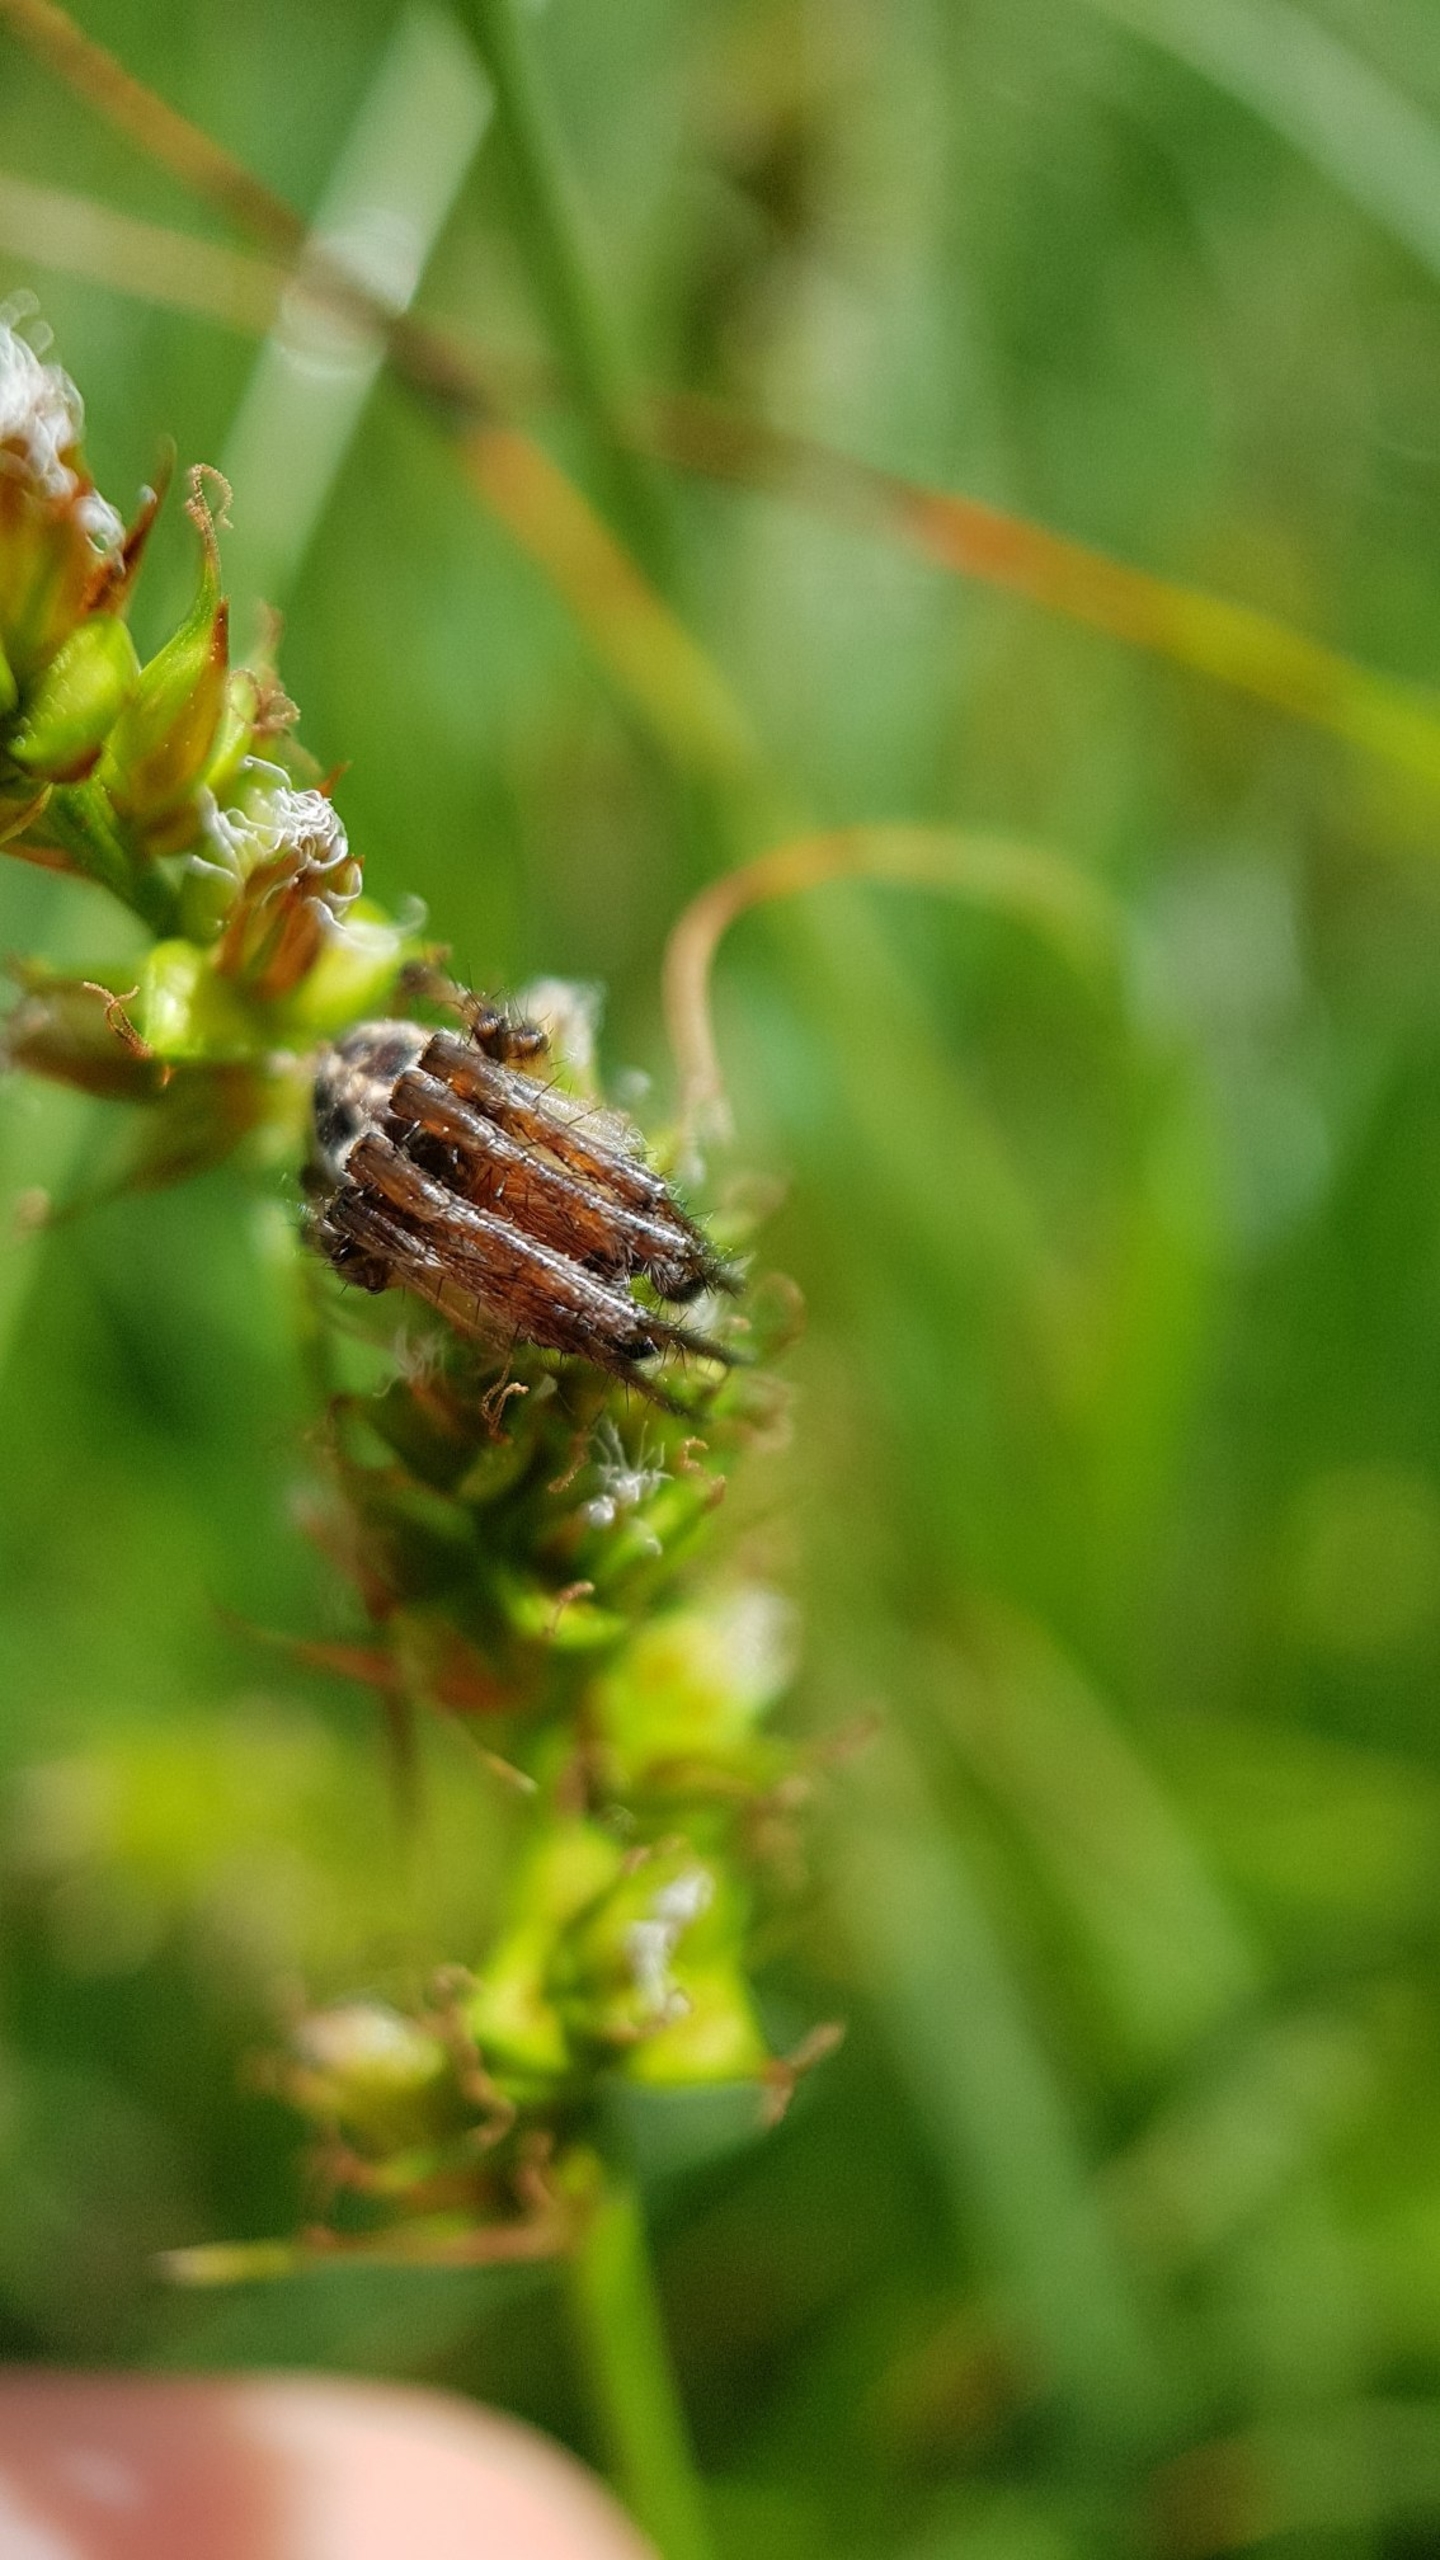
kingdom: Animalia
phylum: Arthropoda
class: Arachnida
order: Araneae
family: Araneidae
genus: Larinioides
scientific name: Larinioides cornutus
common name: Sivhjulspinder
